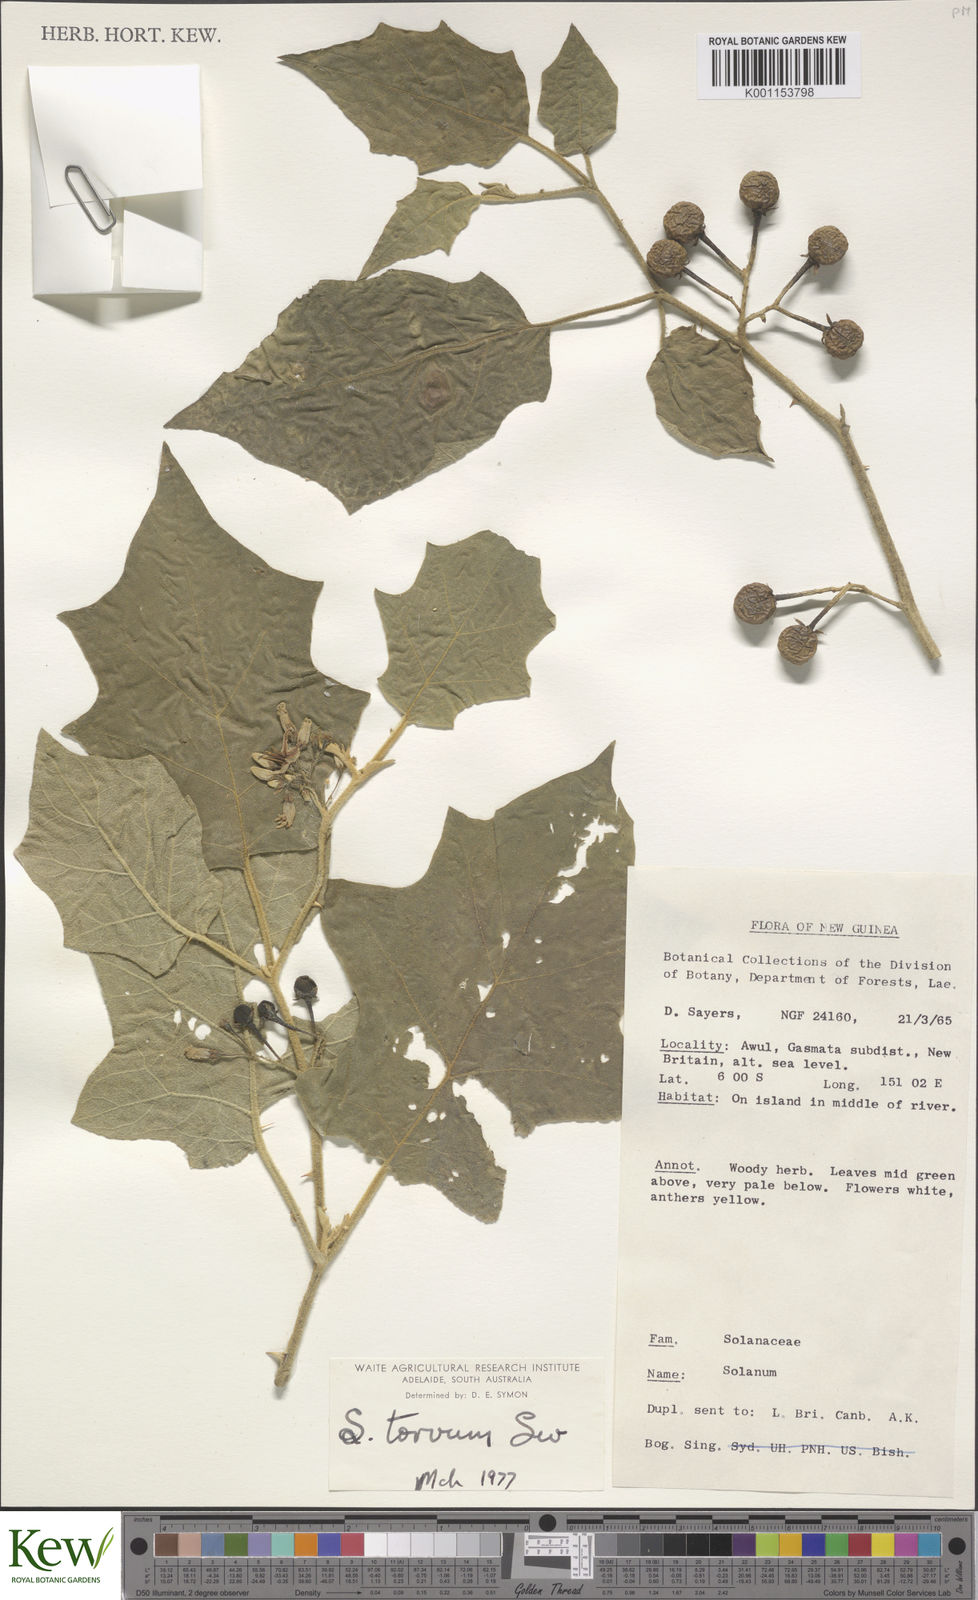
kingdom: Plantae
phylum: Tracheophyta
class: Magnoliopsida
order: Solanales
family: Solanaceae
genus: Solanum
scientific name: Solanum torvum
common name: Turkey berry
